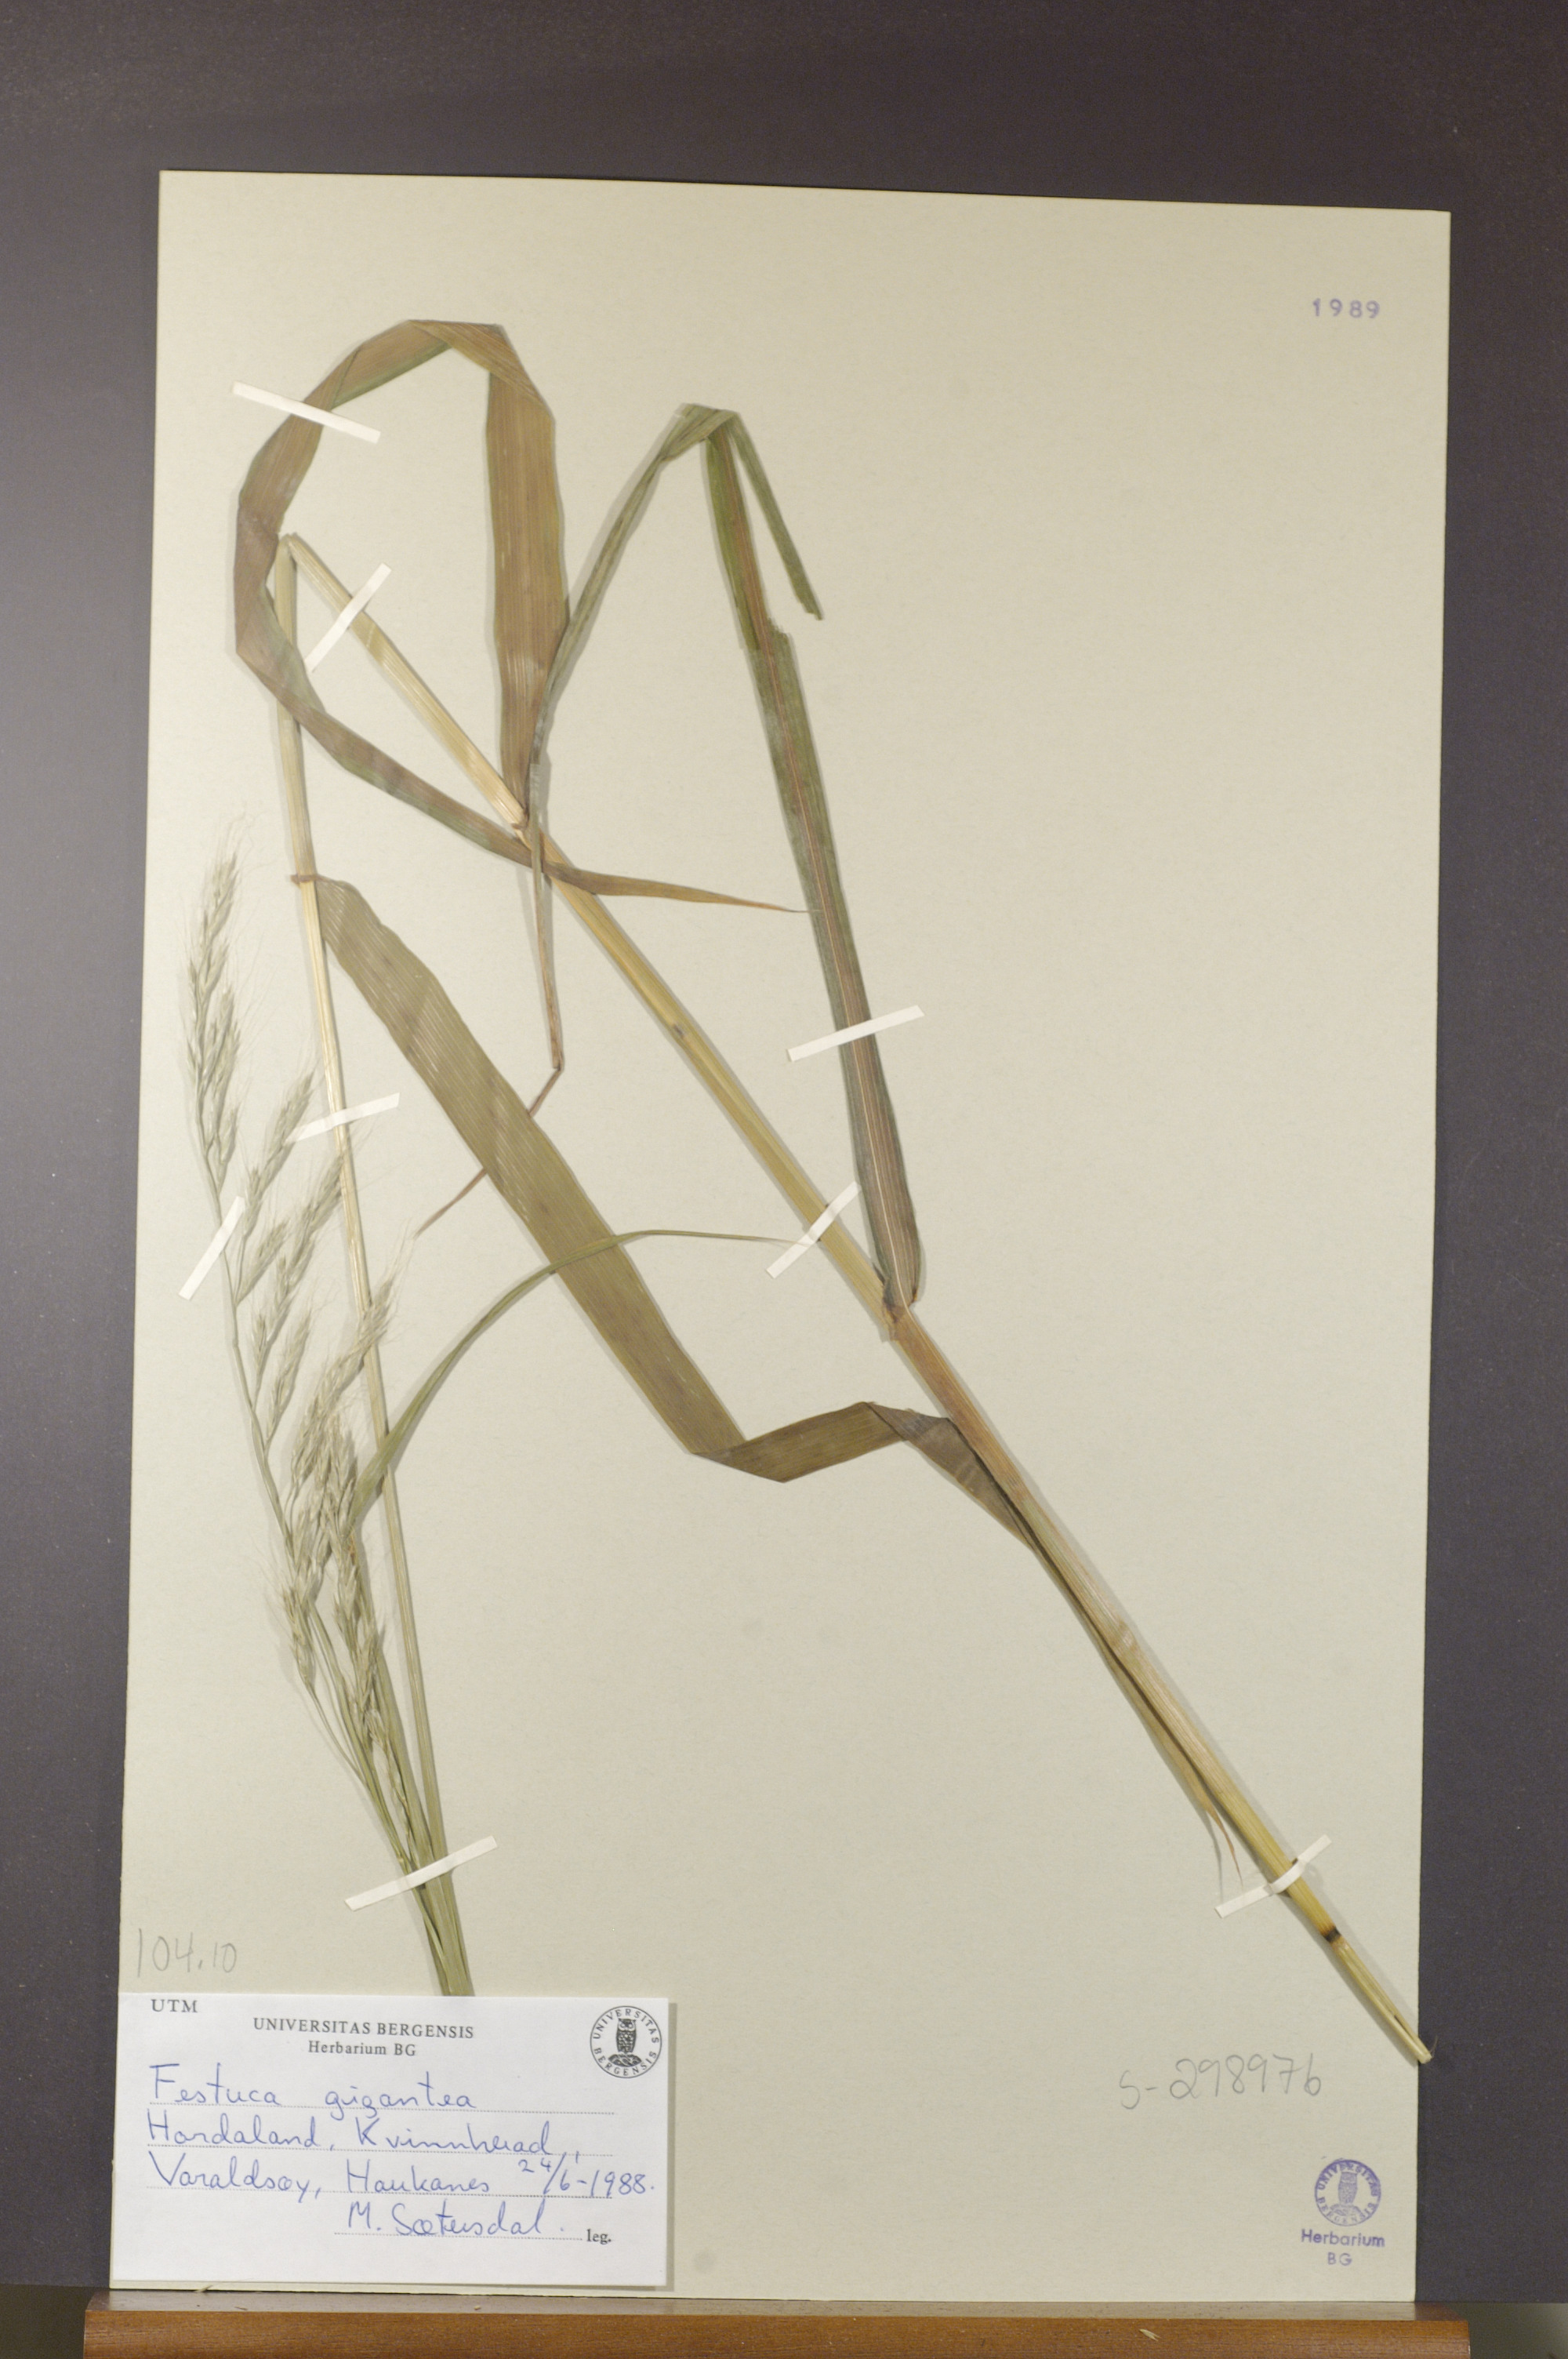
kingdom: Plantae
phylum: Tracheophyta
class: Liliopsida
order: Poales
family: Poaceae
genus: Lolium
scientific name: Lolium giganteum
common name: Giant fescue
